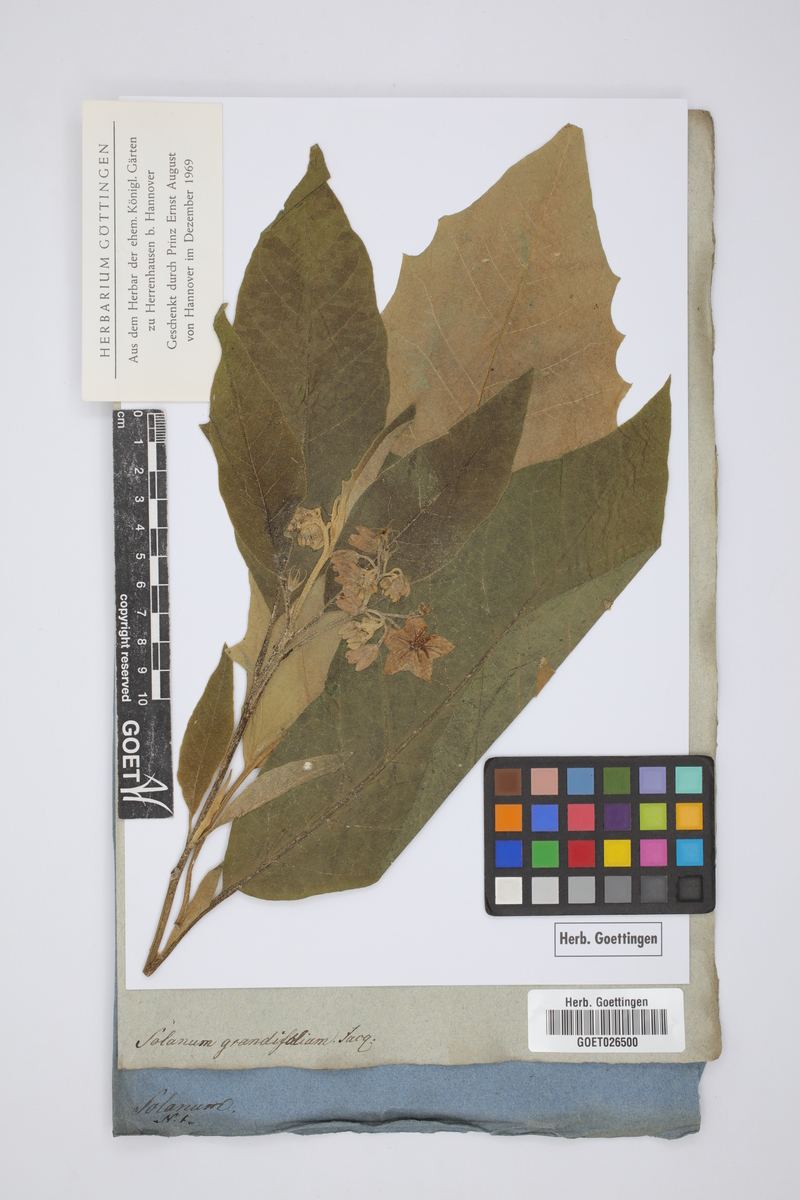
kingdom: Plantae
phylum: Tracheophyta
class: Magnoliopsida
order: Solanales
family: Solanaceae
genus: Solanum
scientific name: Solanum sessile
